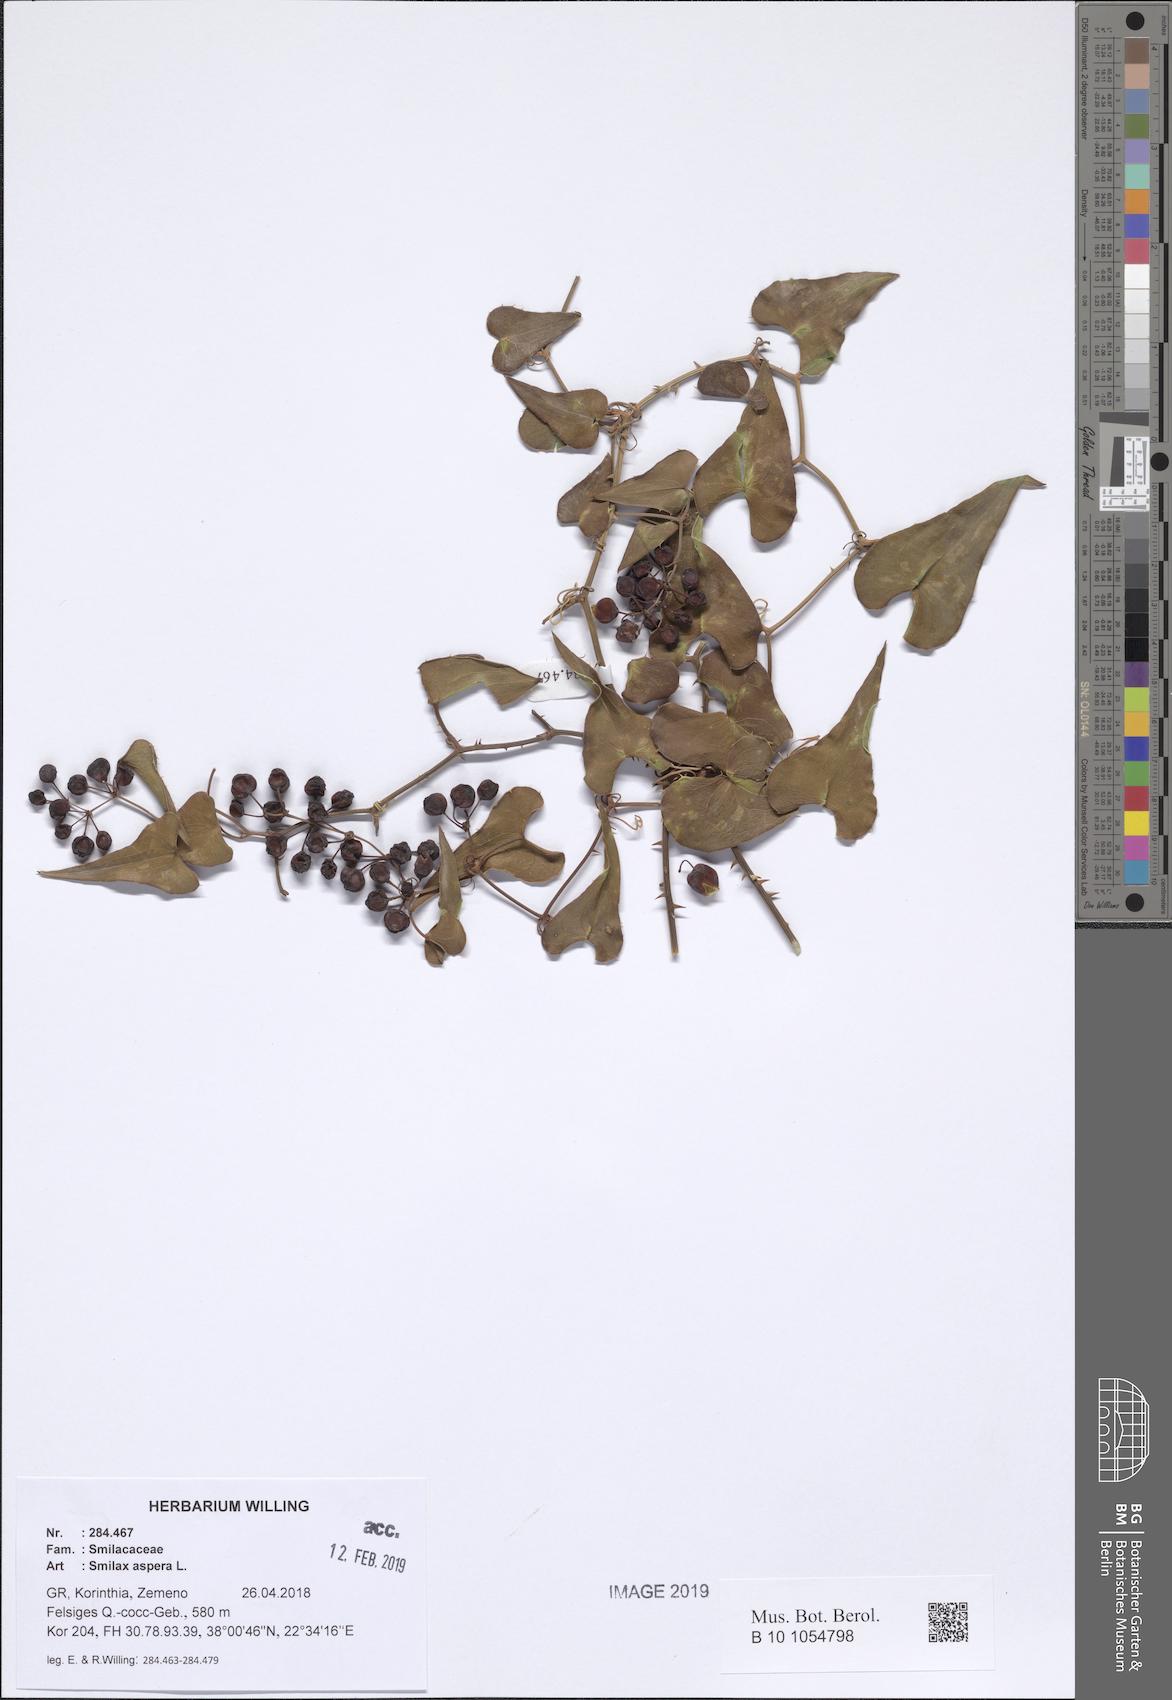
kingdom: Plantae
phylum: Tracheophyta
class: Liliopsida
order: Liliales
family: Smilacaceae
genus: Smilax
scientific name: Smilax aspera
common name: Common smilax
